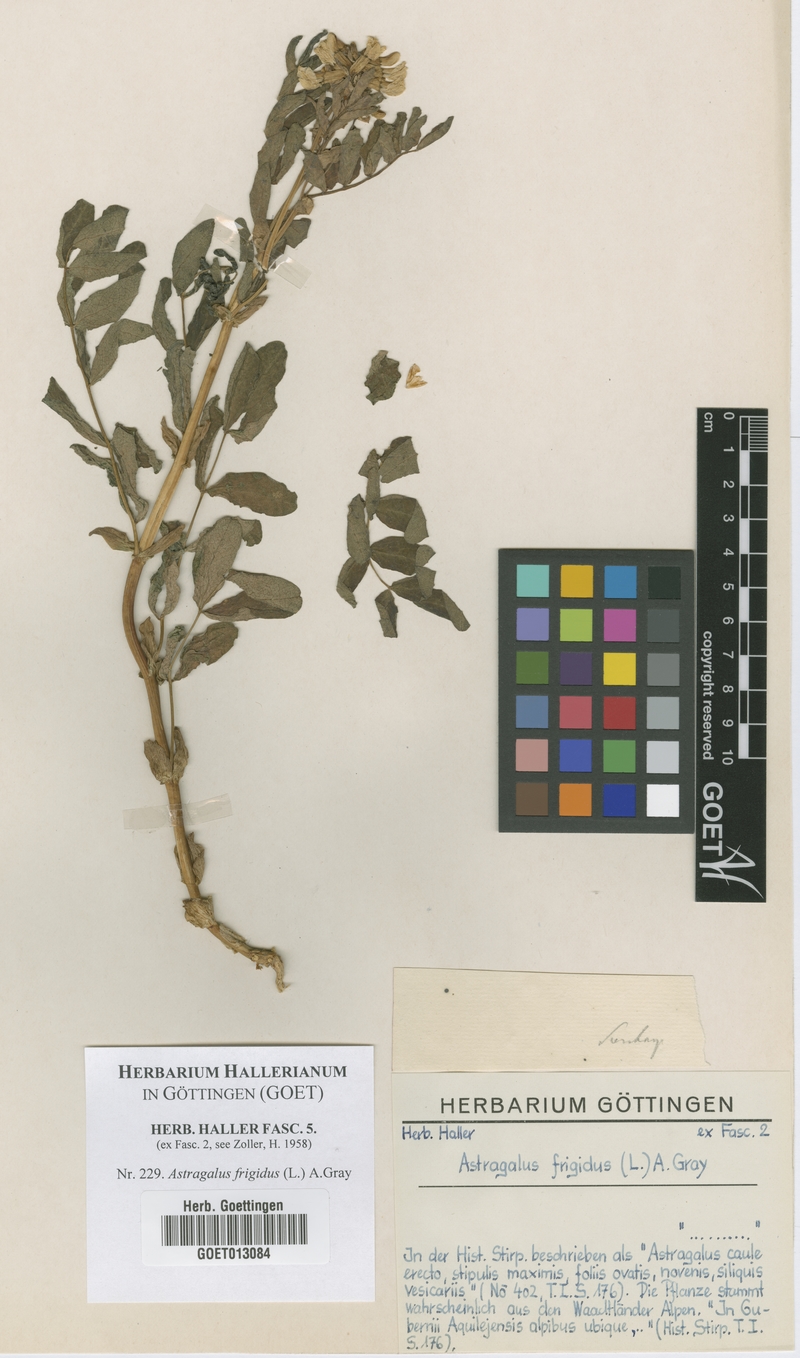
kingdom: Plantae
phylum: Tracheophyta
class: Magnoliopsida
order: Fabales
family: Fabaceae
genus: Astragalus
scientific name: Astragalus frigidus
